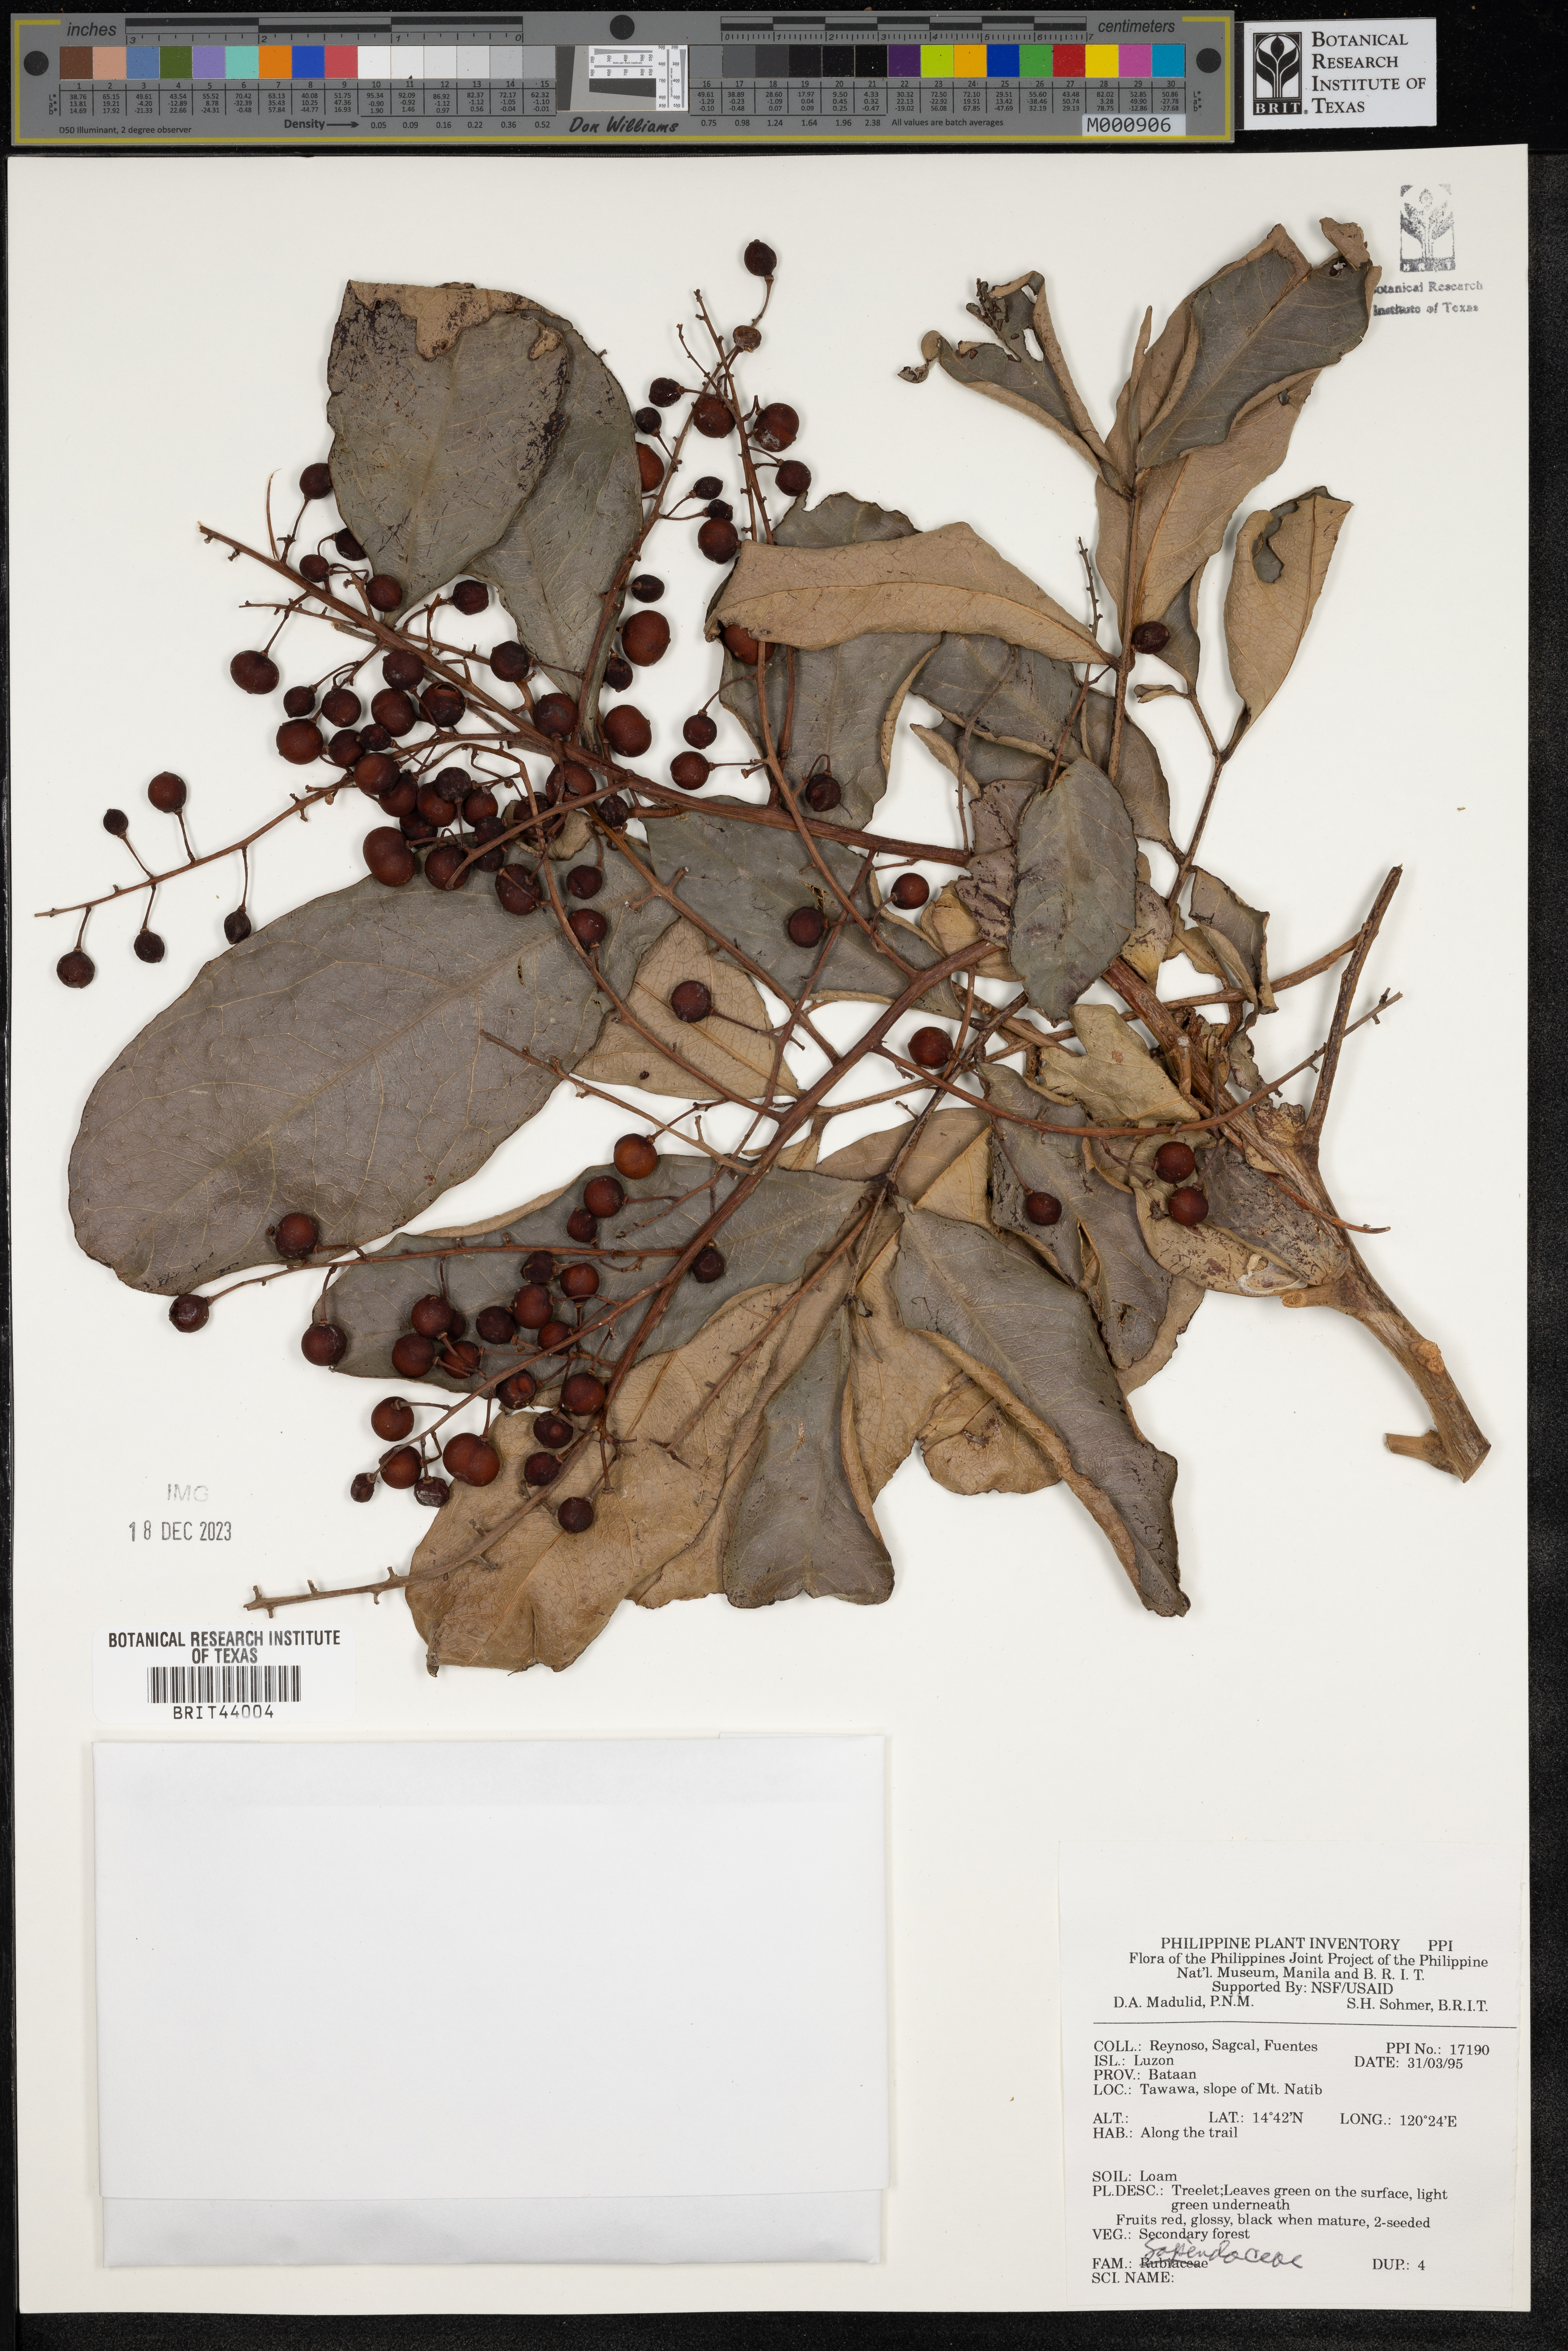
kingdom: Plantae
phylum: Tracheophyta
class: Magnoliopsida
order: Sapindales
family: Sapindaceae
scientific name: Sapindaceae
